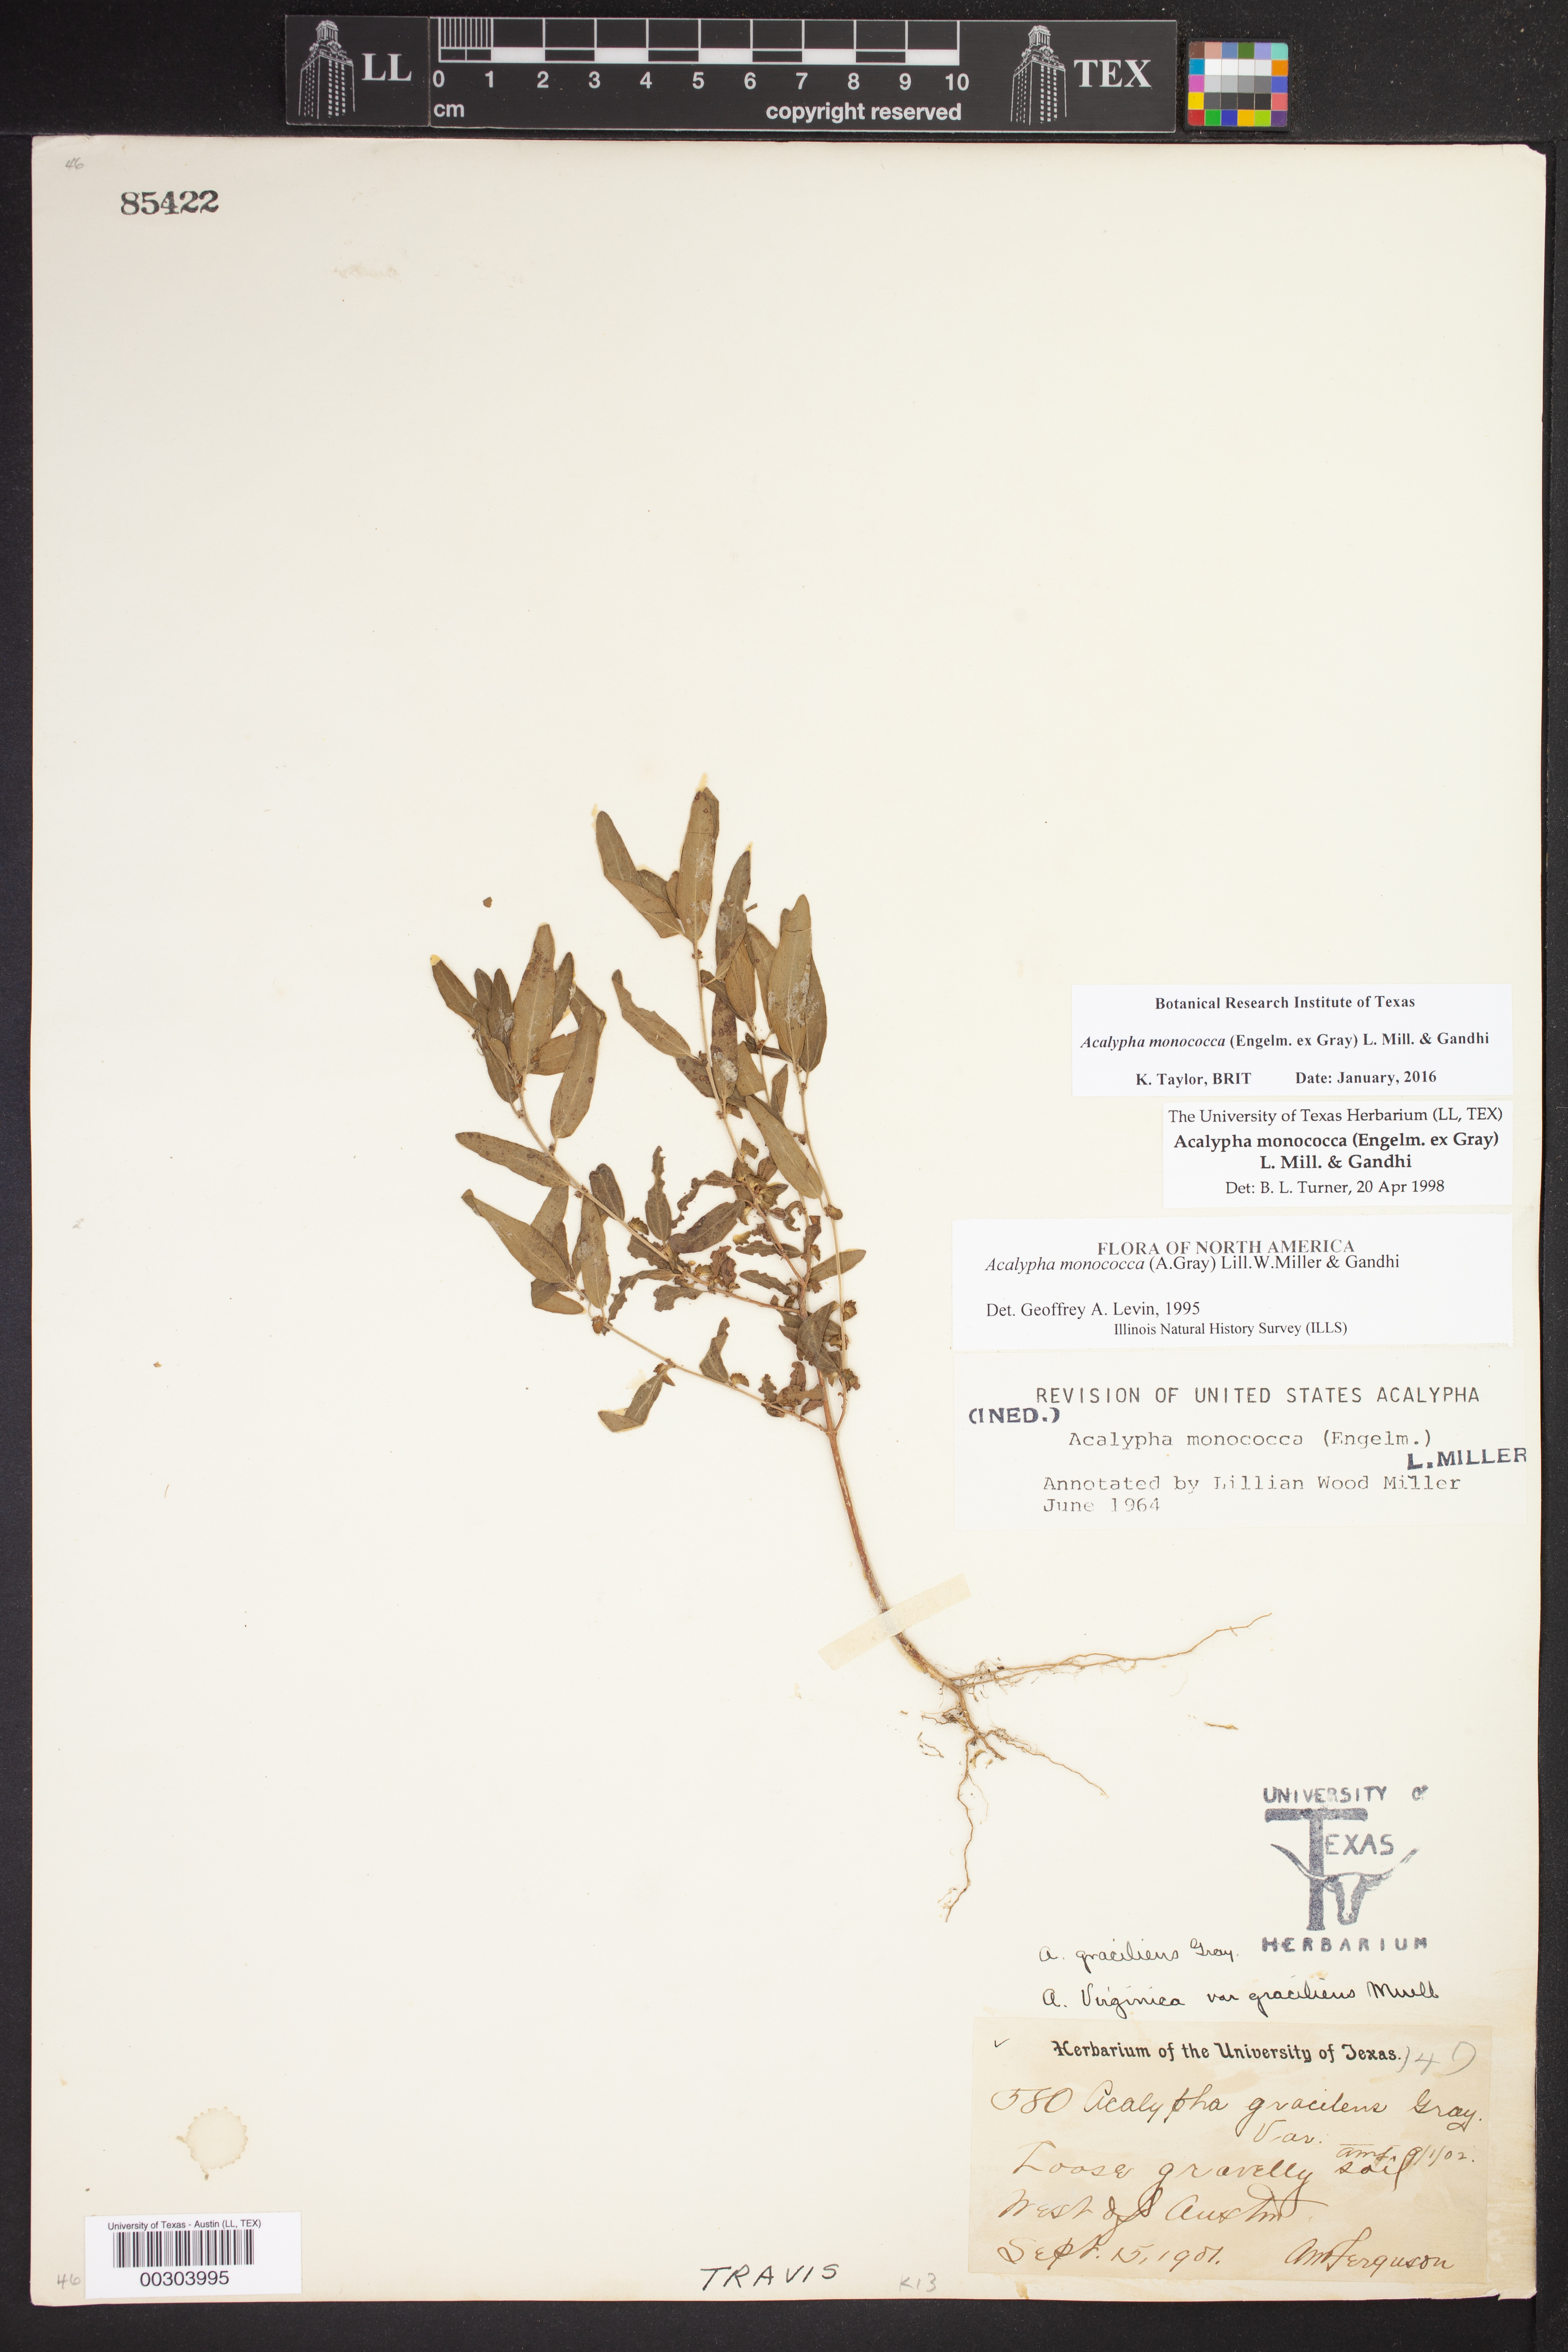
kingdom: Plantae
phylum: Tracheophyta
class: Magnoliopsida
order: Malpighiales
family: Euphorbiaceae
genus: Acalypha
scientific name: Acalypha monococca
